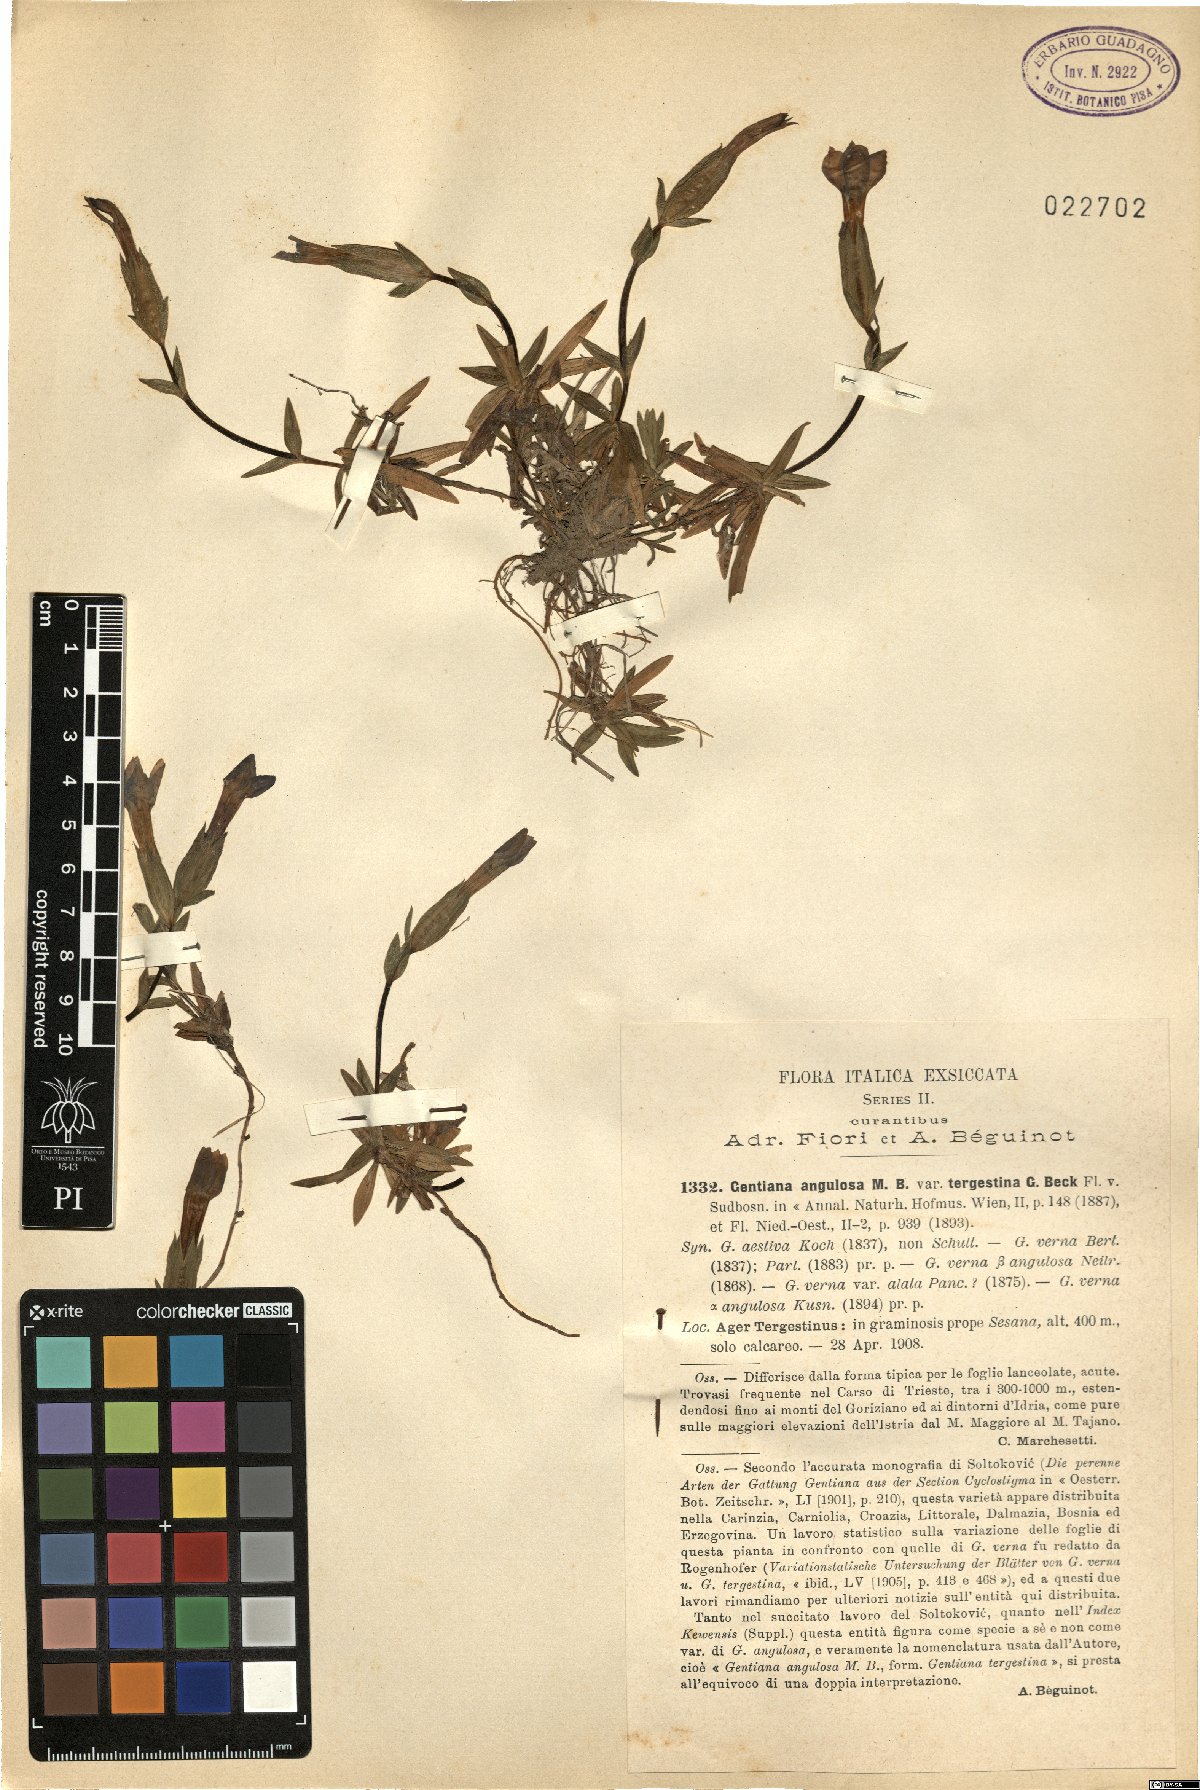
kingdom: Plantae
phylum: Tracheophyta
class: Magnoliopsida
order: Gentianales
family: Gentianaceae
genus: Gentiana
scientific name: Gentiana verna
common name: Spring gentian
